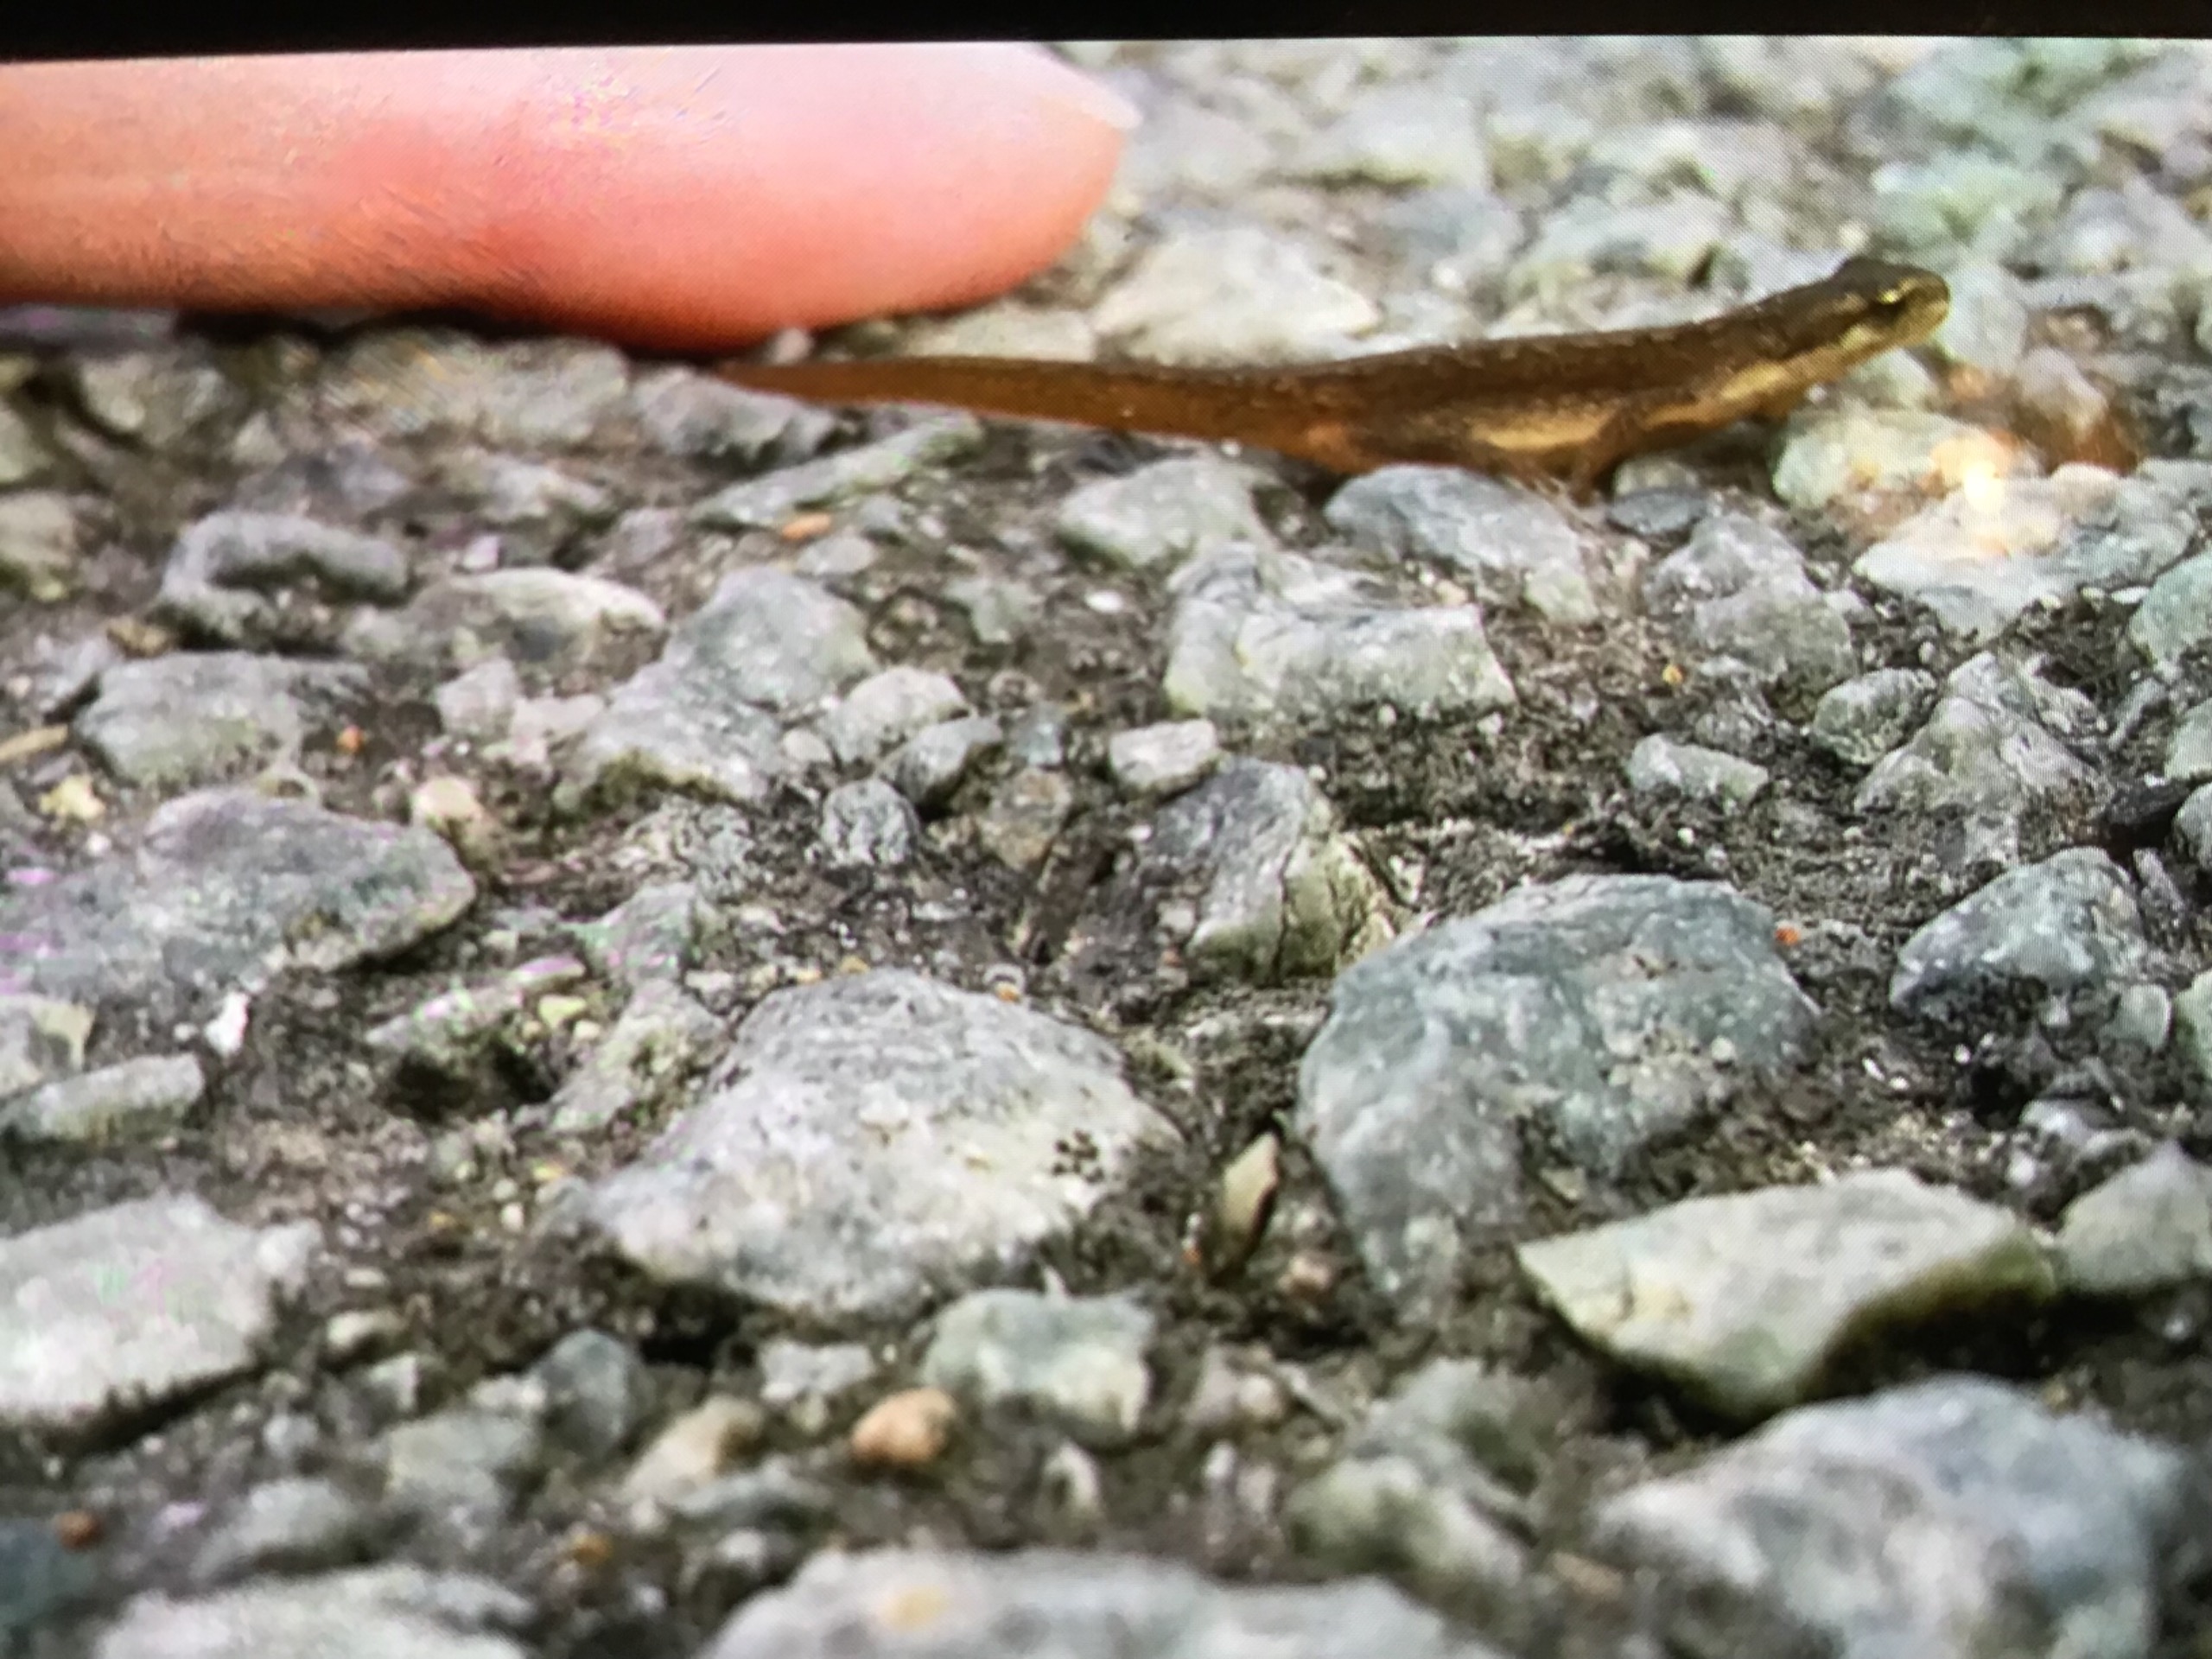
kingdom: Animalia
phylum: Chordata
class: Amphibia
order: Caudata
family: Salamandridae
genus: Lissotriton
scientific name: Lissotriton vulgaris
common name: Lille vandsalamander
